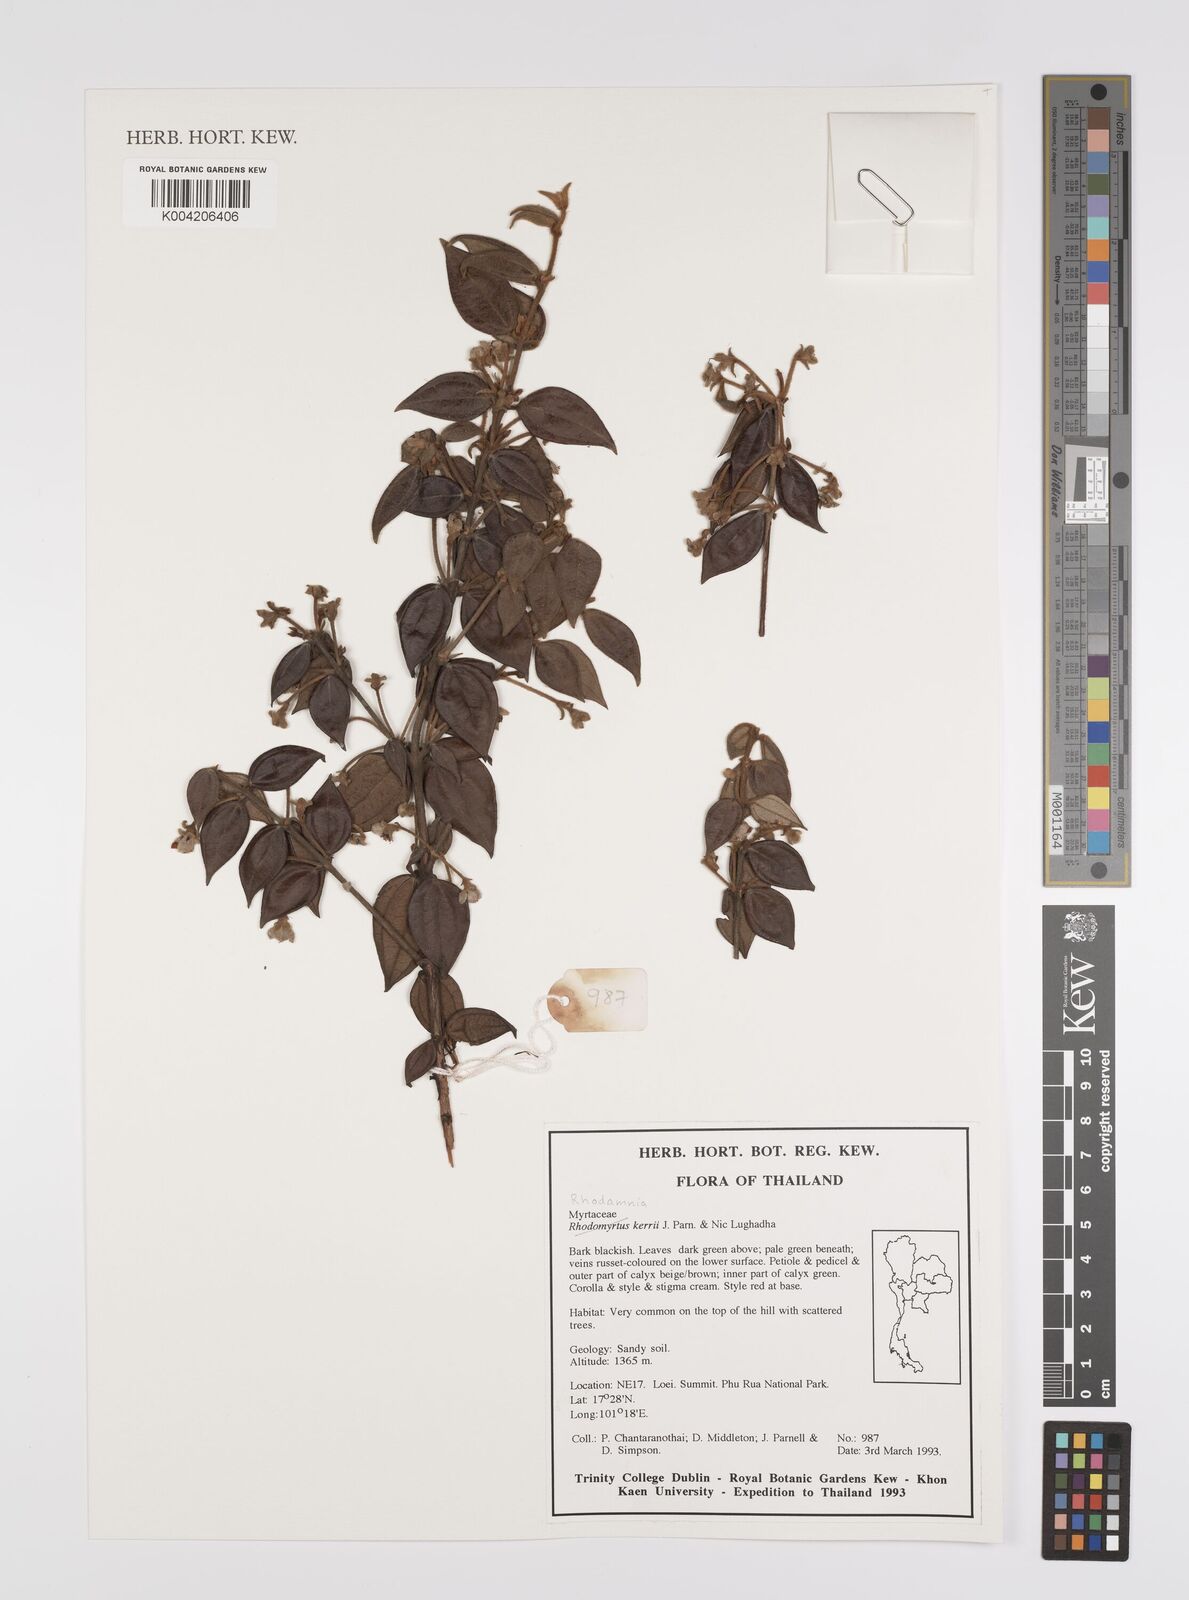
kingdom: Plantae
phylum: Tracheophyta
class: Magnoliopsida
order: Myrtales
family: Myrtaceae
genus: Rhodamnia
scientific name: Rhodamnia kerrii
